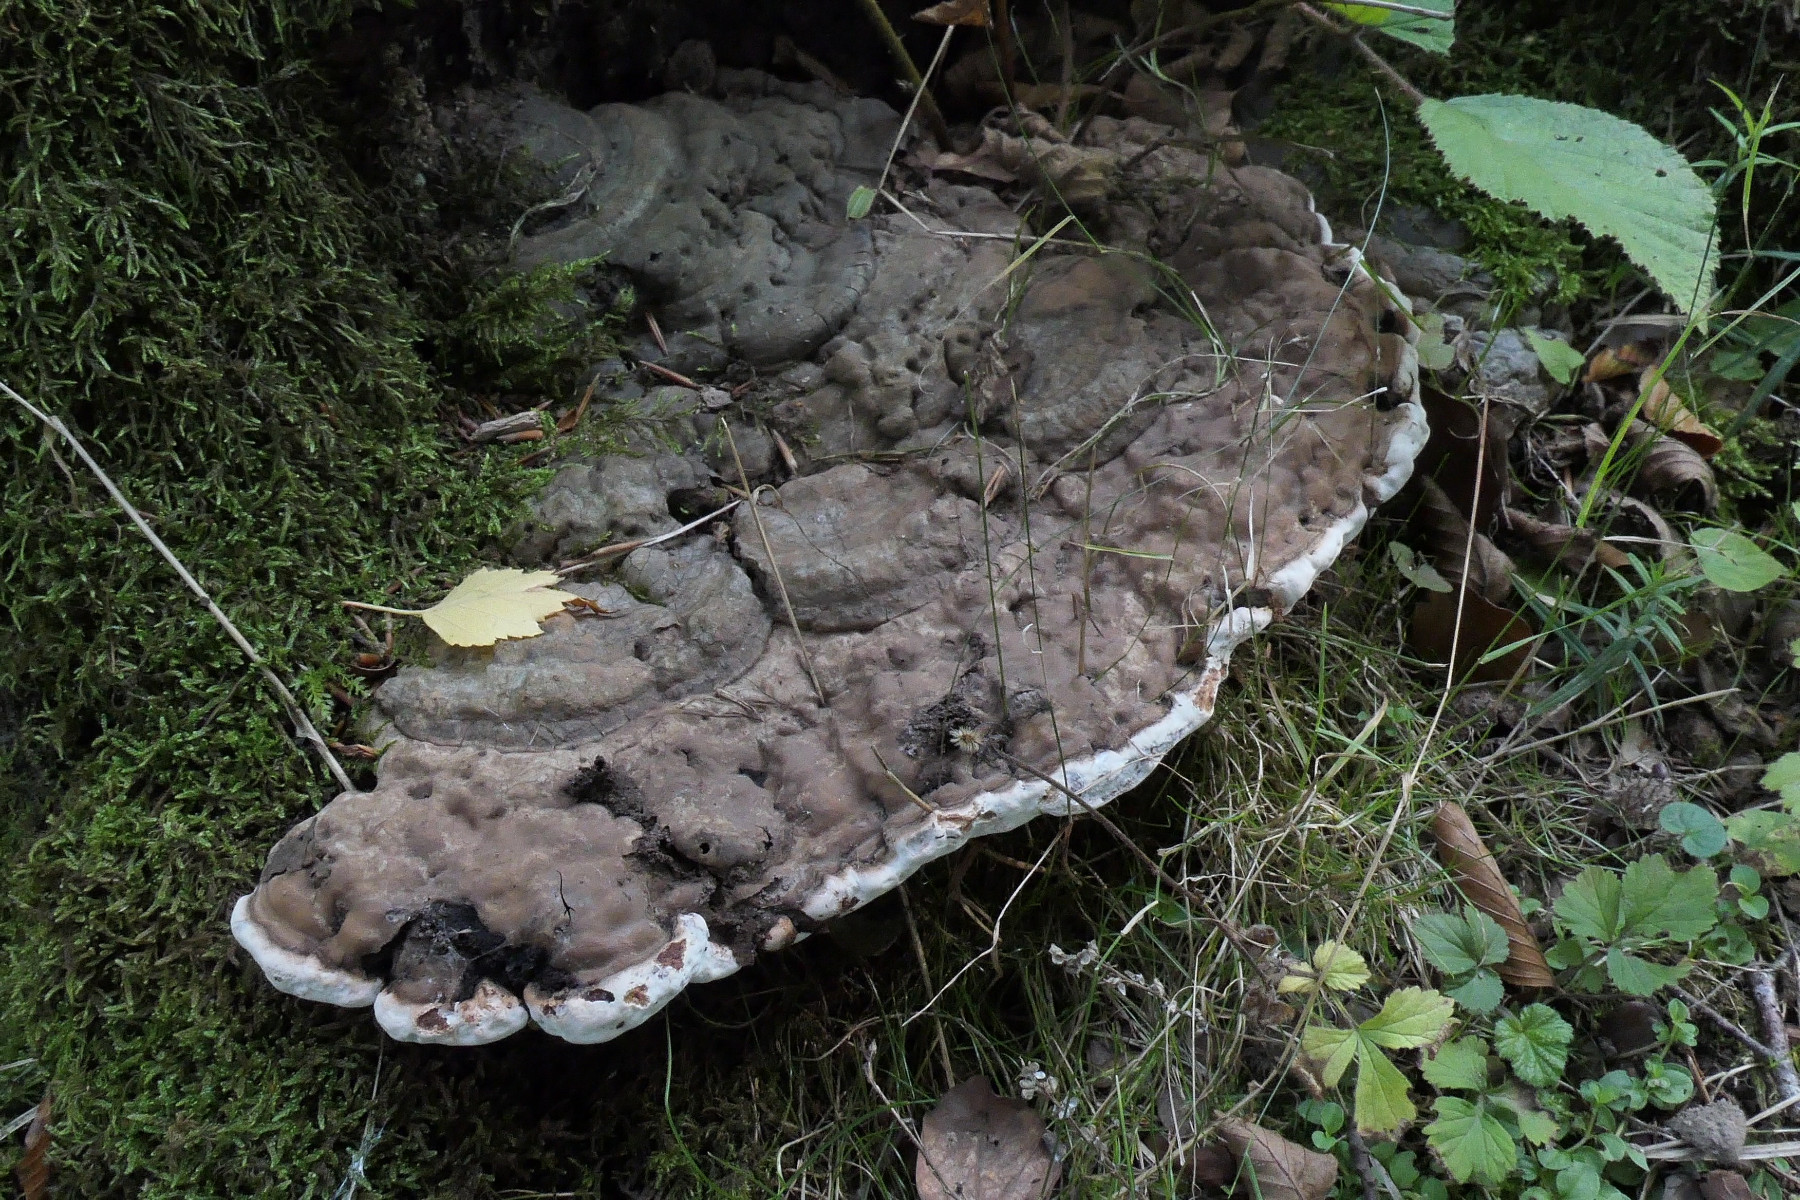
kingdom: Fungi
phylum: Basidiomycota
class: Agaricomycetes
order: Polyporales
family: Polyporaceae
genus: Ganoderma
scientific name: Ganoderma applanatum
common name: flad lakporesvamp
